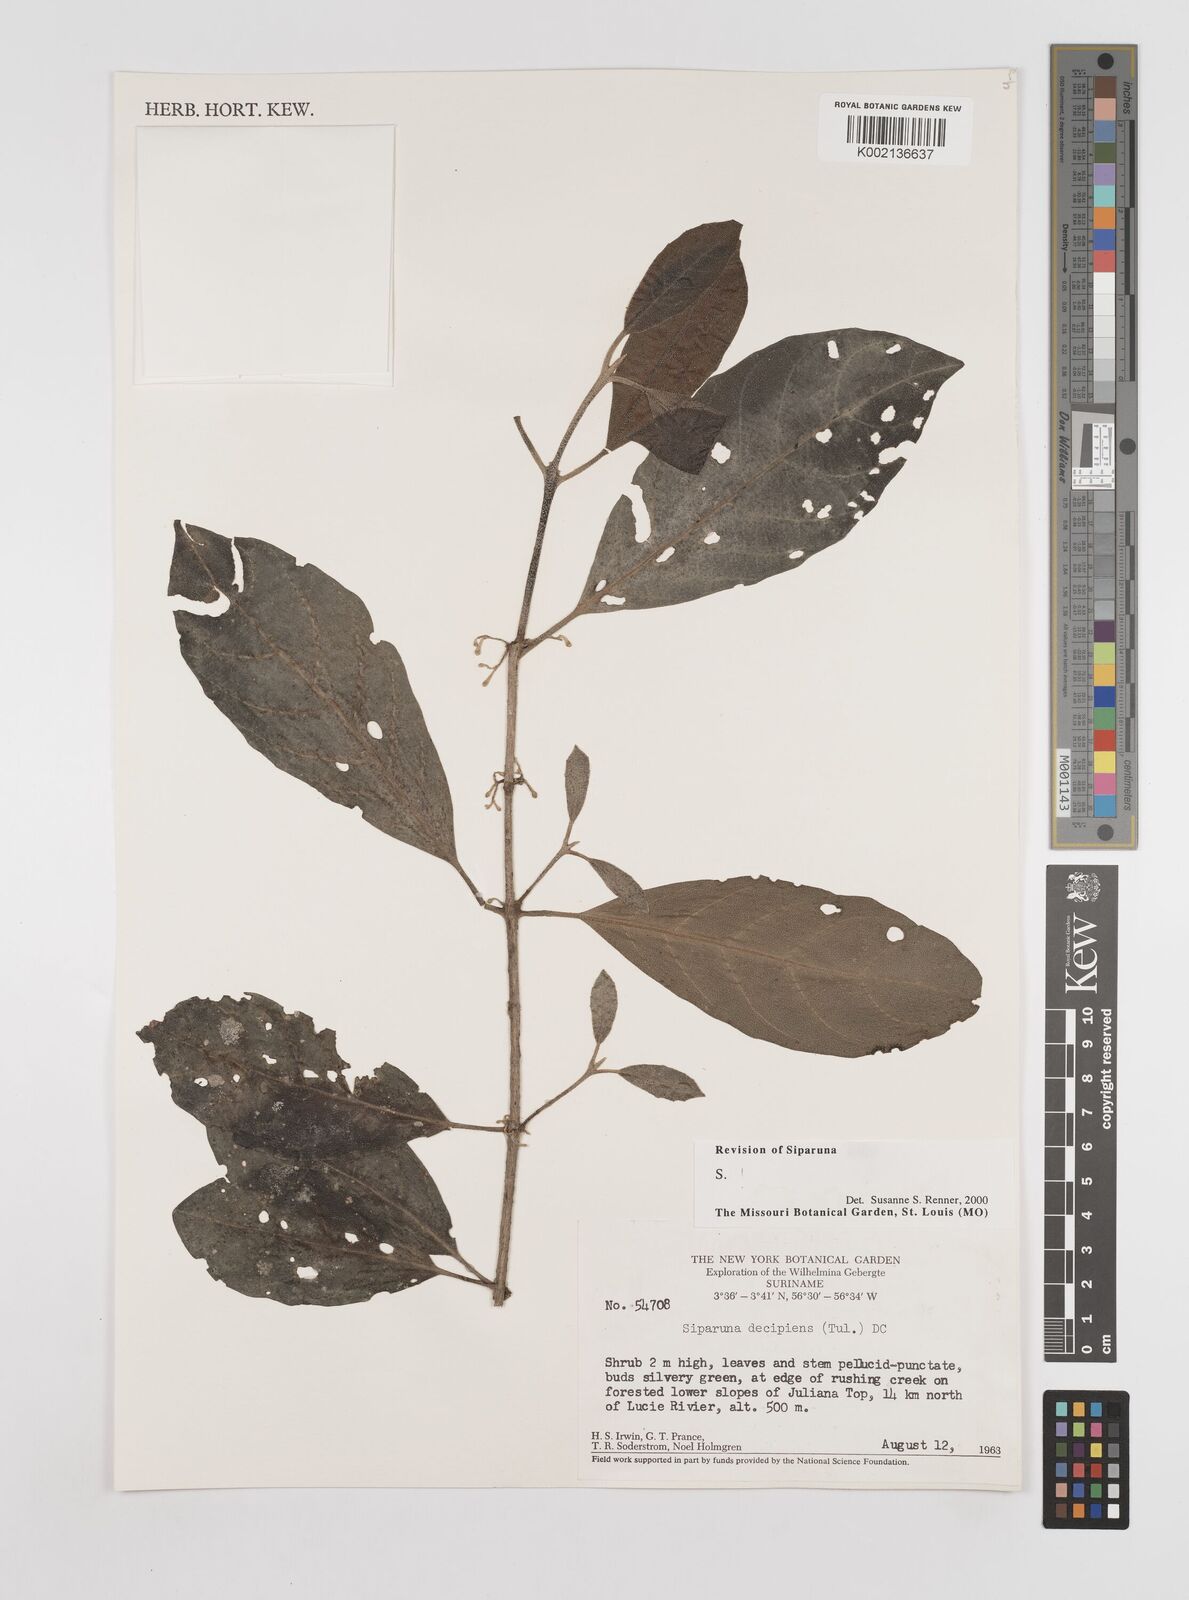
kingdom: Plantae
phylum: Tracheophyta
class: Magnoliopsida
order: Laurales
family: Siparunaceae
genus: Siparuna
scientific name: Siparuna decipiens
